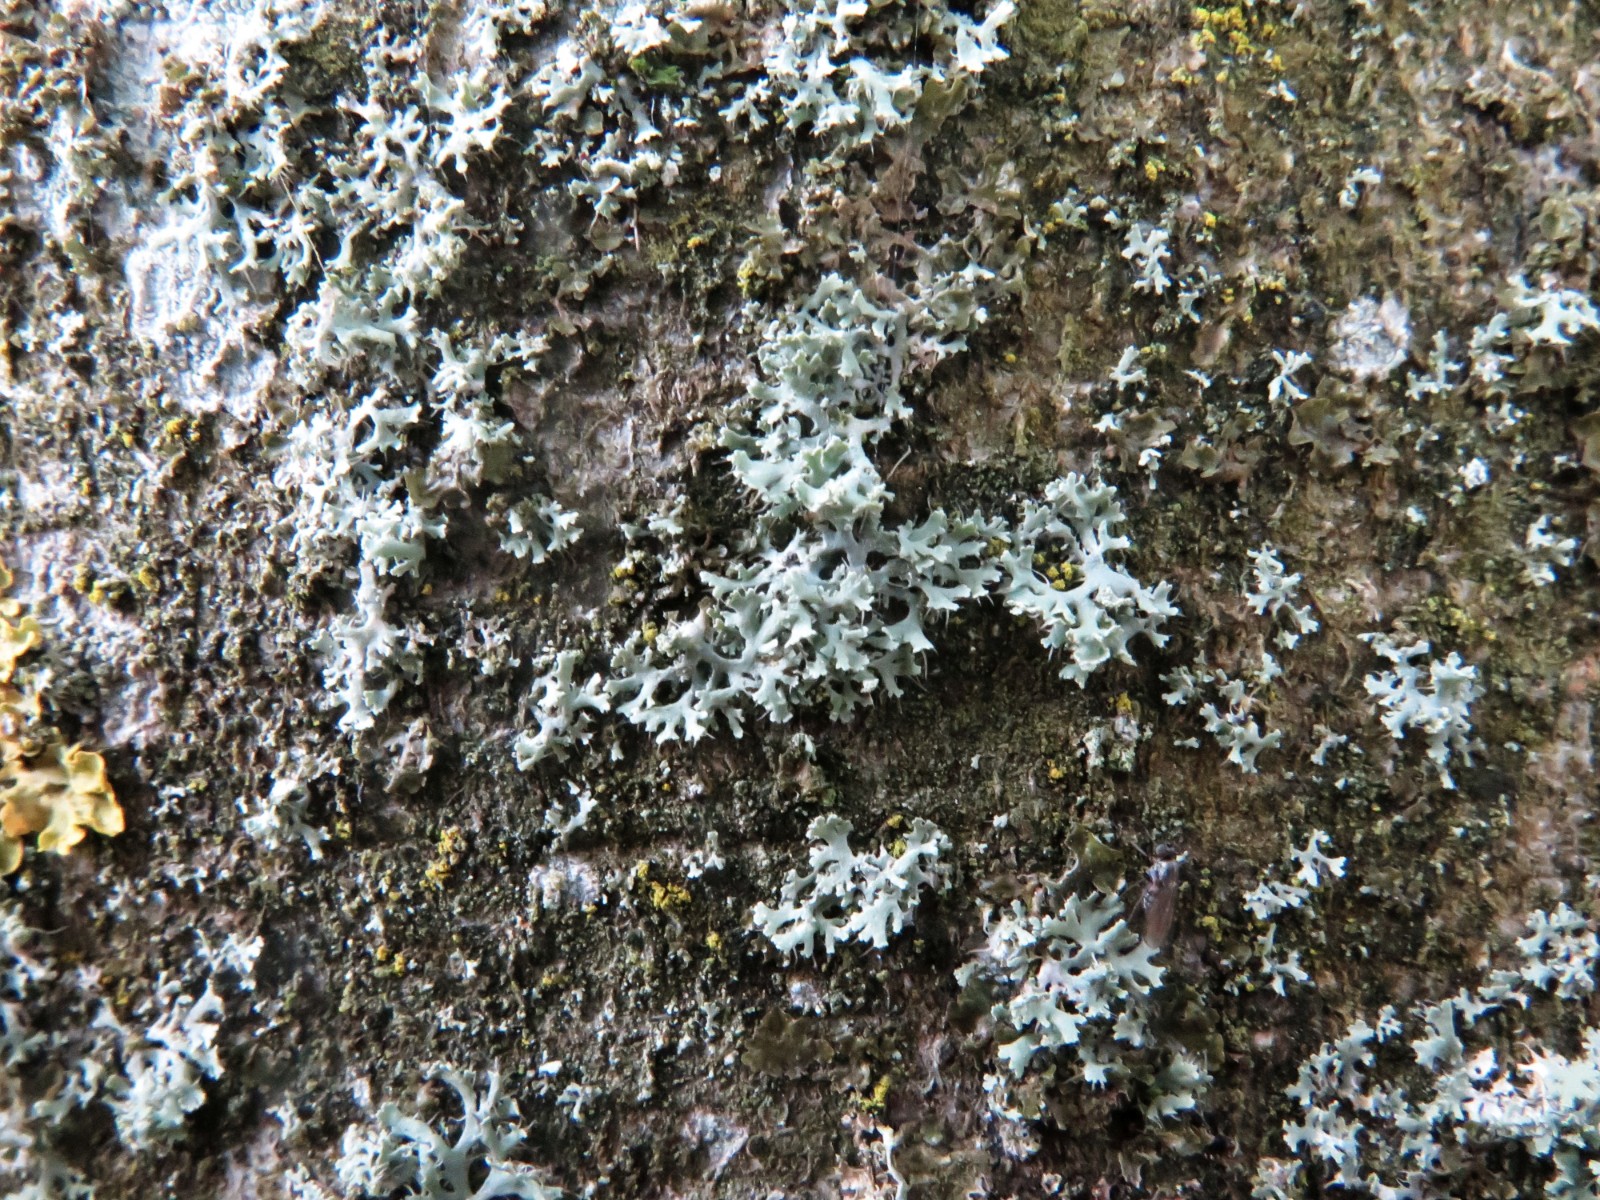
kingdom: Fungi
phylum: Ascomycota
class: Lecanoromycetes
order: Caliciales
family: Physciaceae
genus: Physcia
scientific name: Physcia tenella
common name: spæd rosetlav
